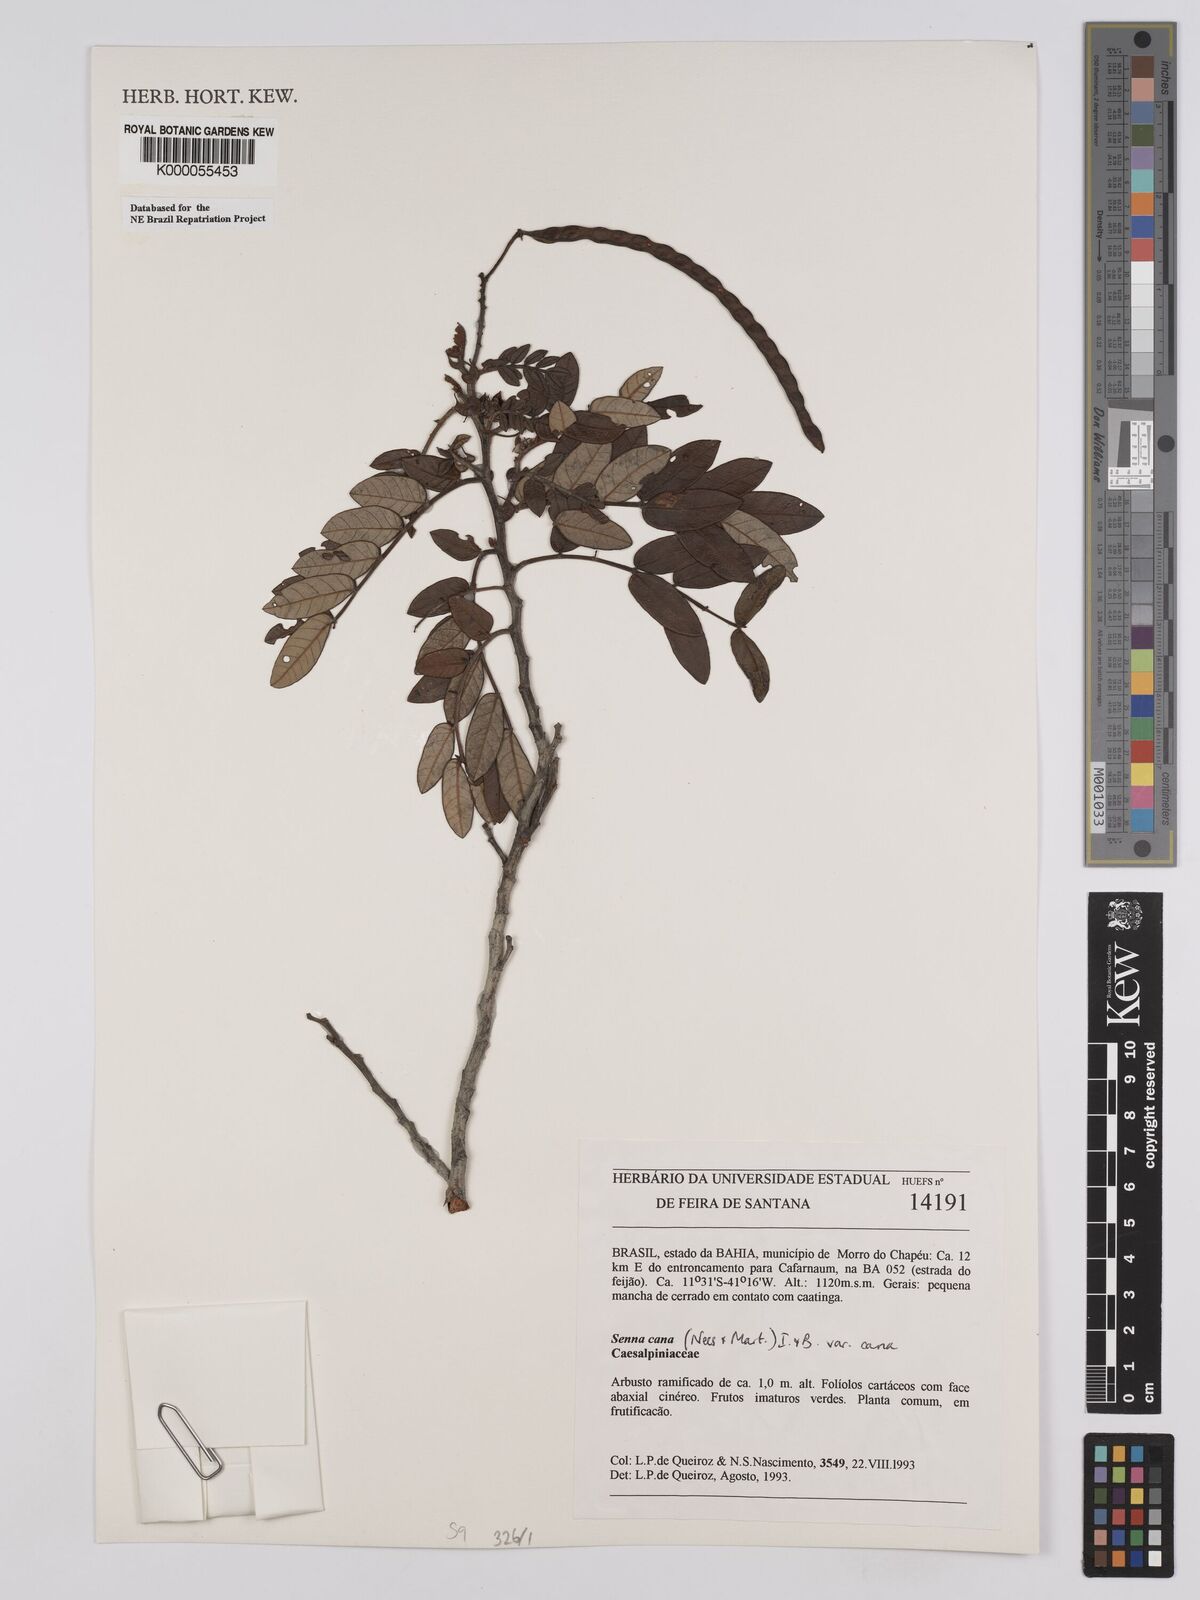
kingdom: Plantae
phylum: Tracheophyta
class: Magnoliopsida
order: Fabales
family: Fabaceae
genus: Senna
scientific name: Senna cana
